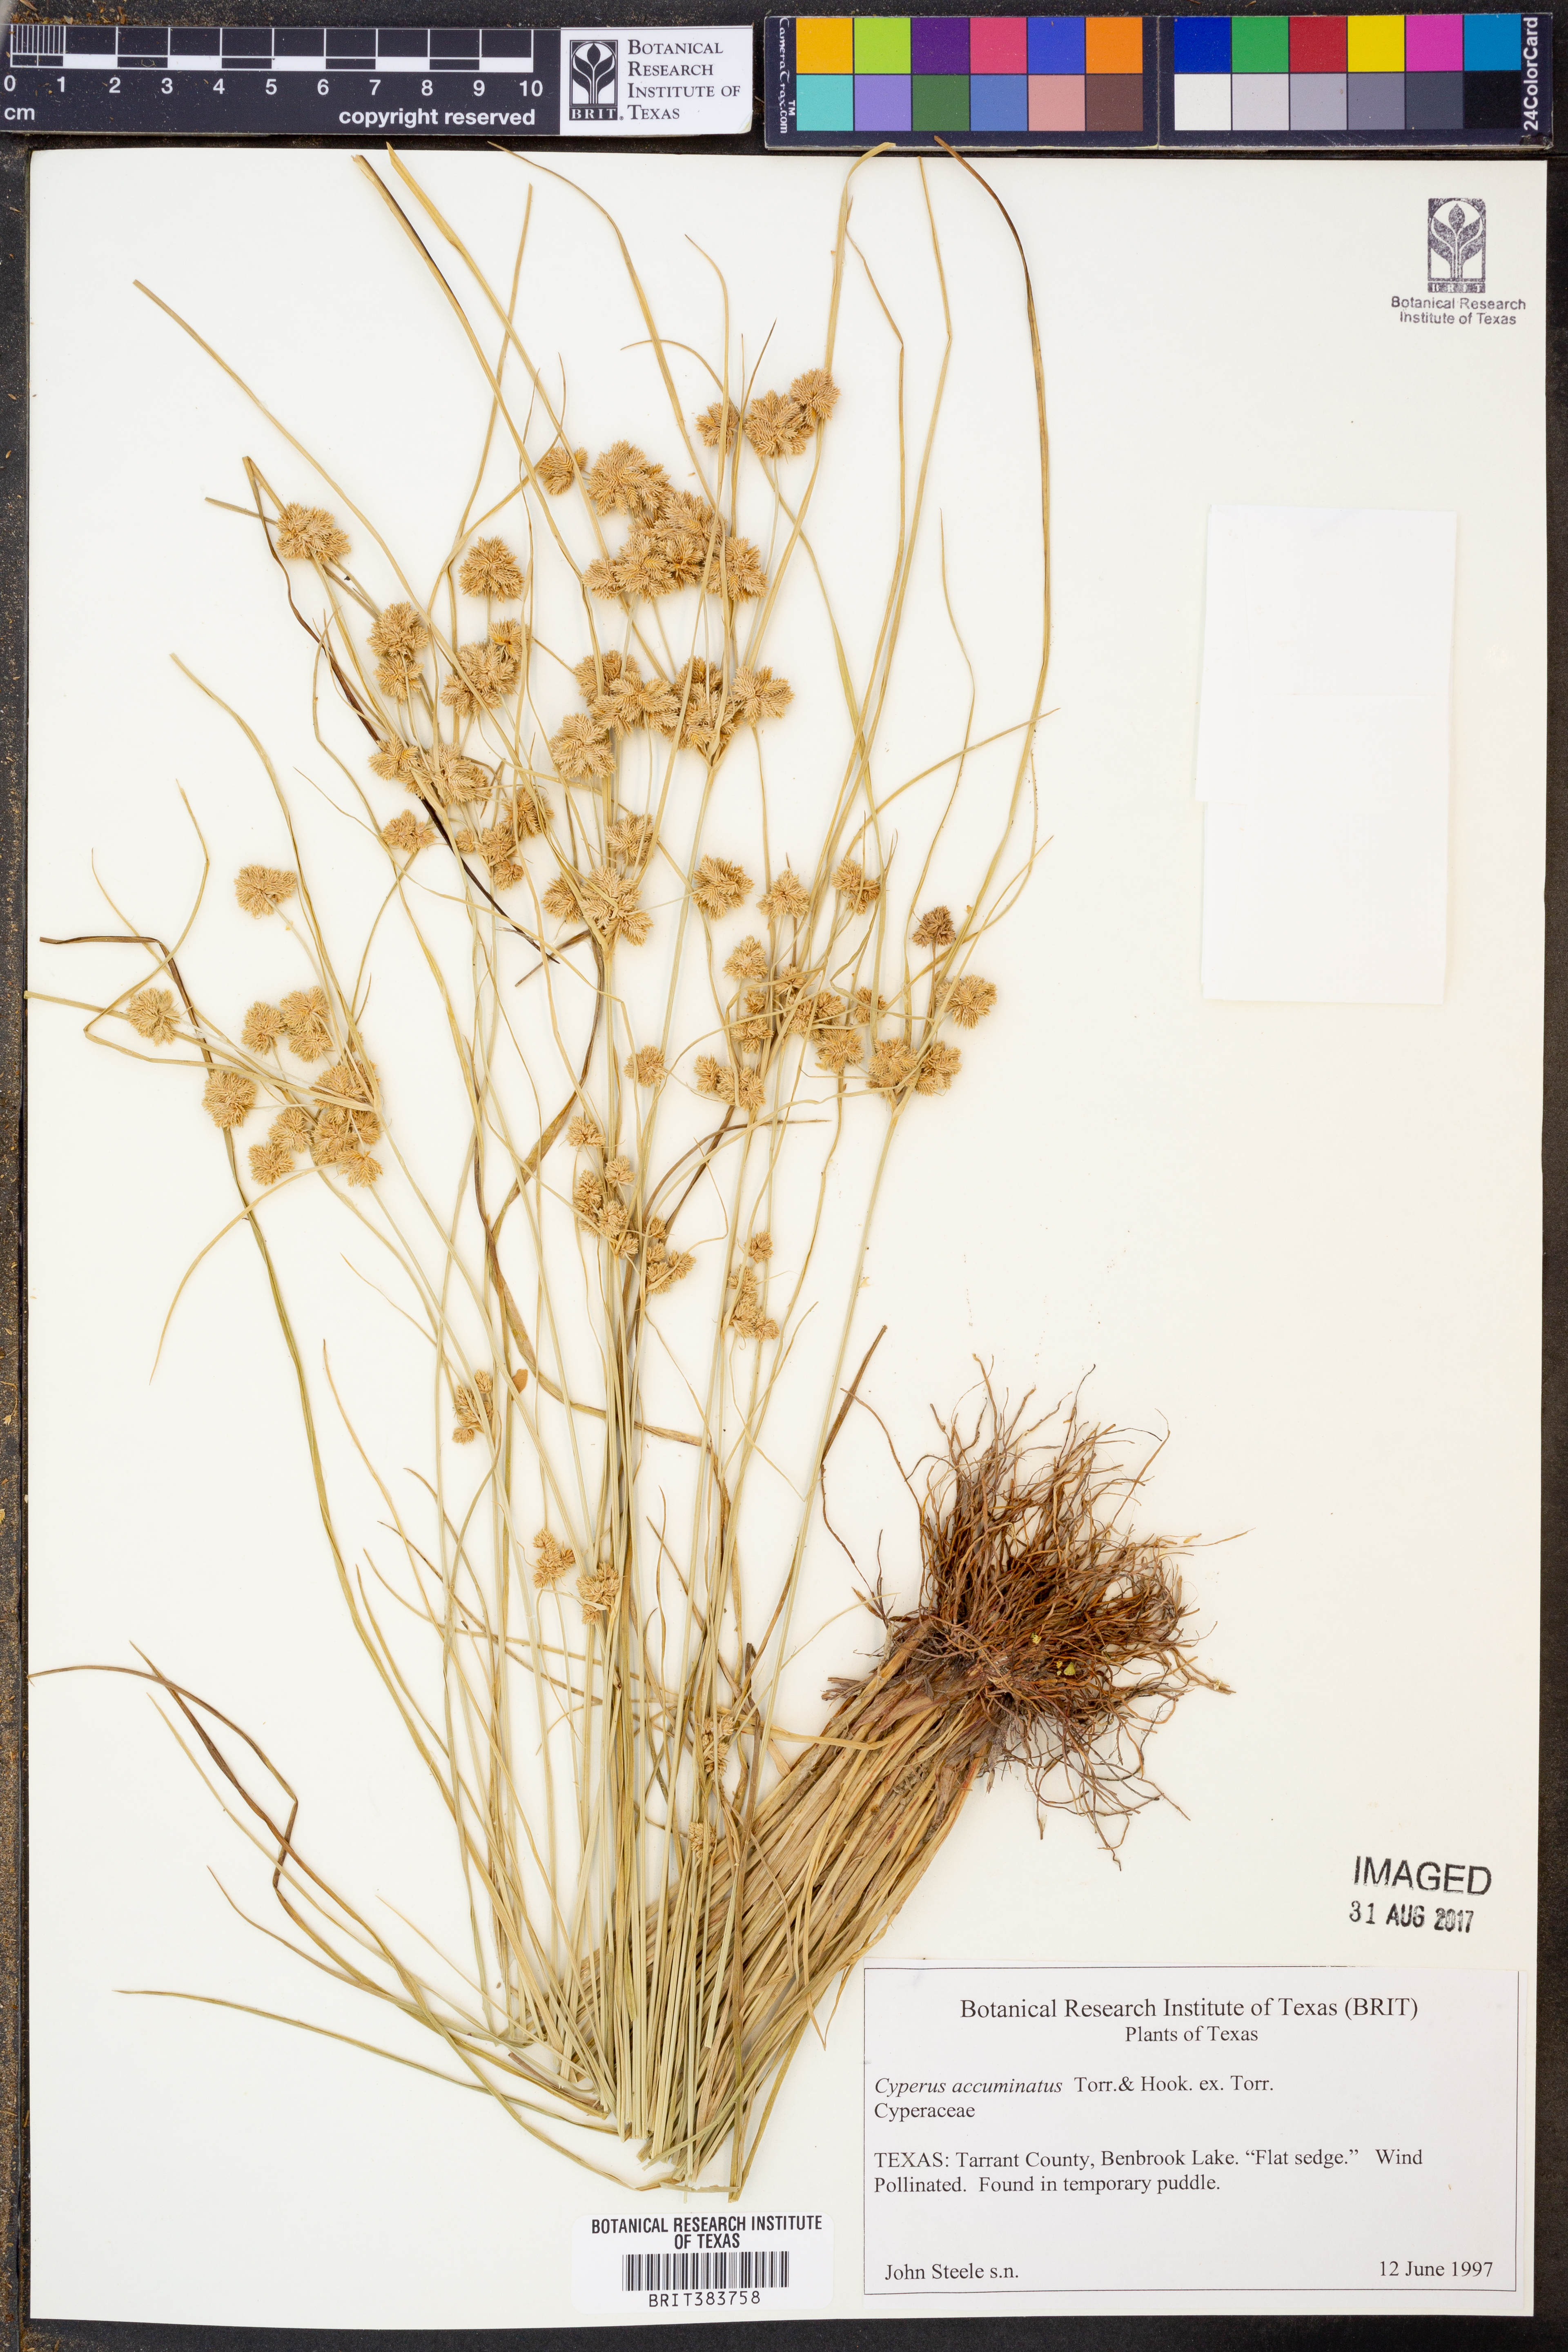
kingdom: Plantae
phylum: Tracheophyta
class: Liliopsida
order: Poales
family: Cyperaceae
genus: Cyperus
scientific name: Cyperus acuminatus
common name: Short-pointed cyperus
